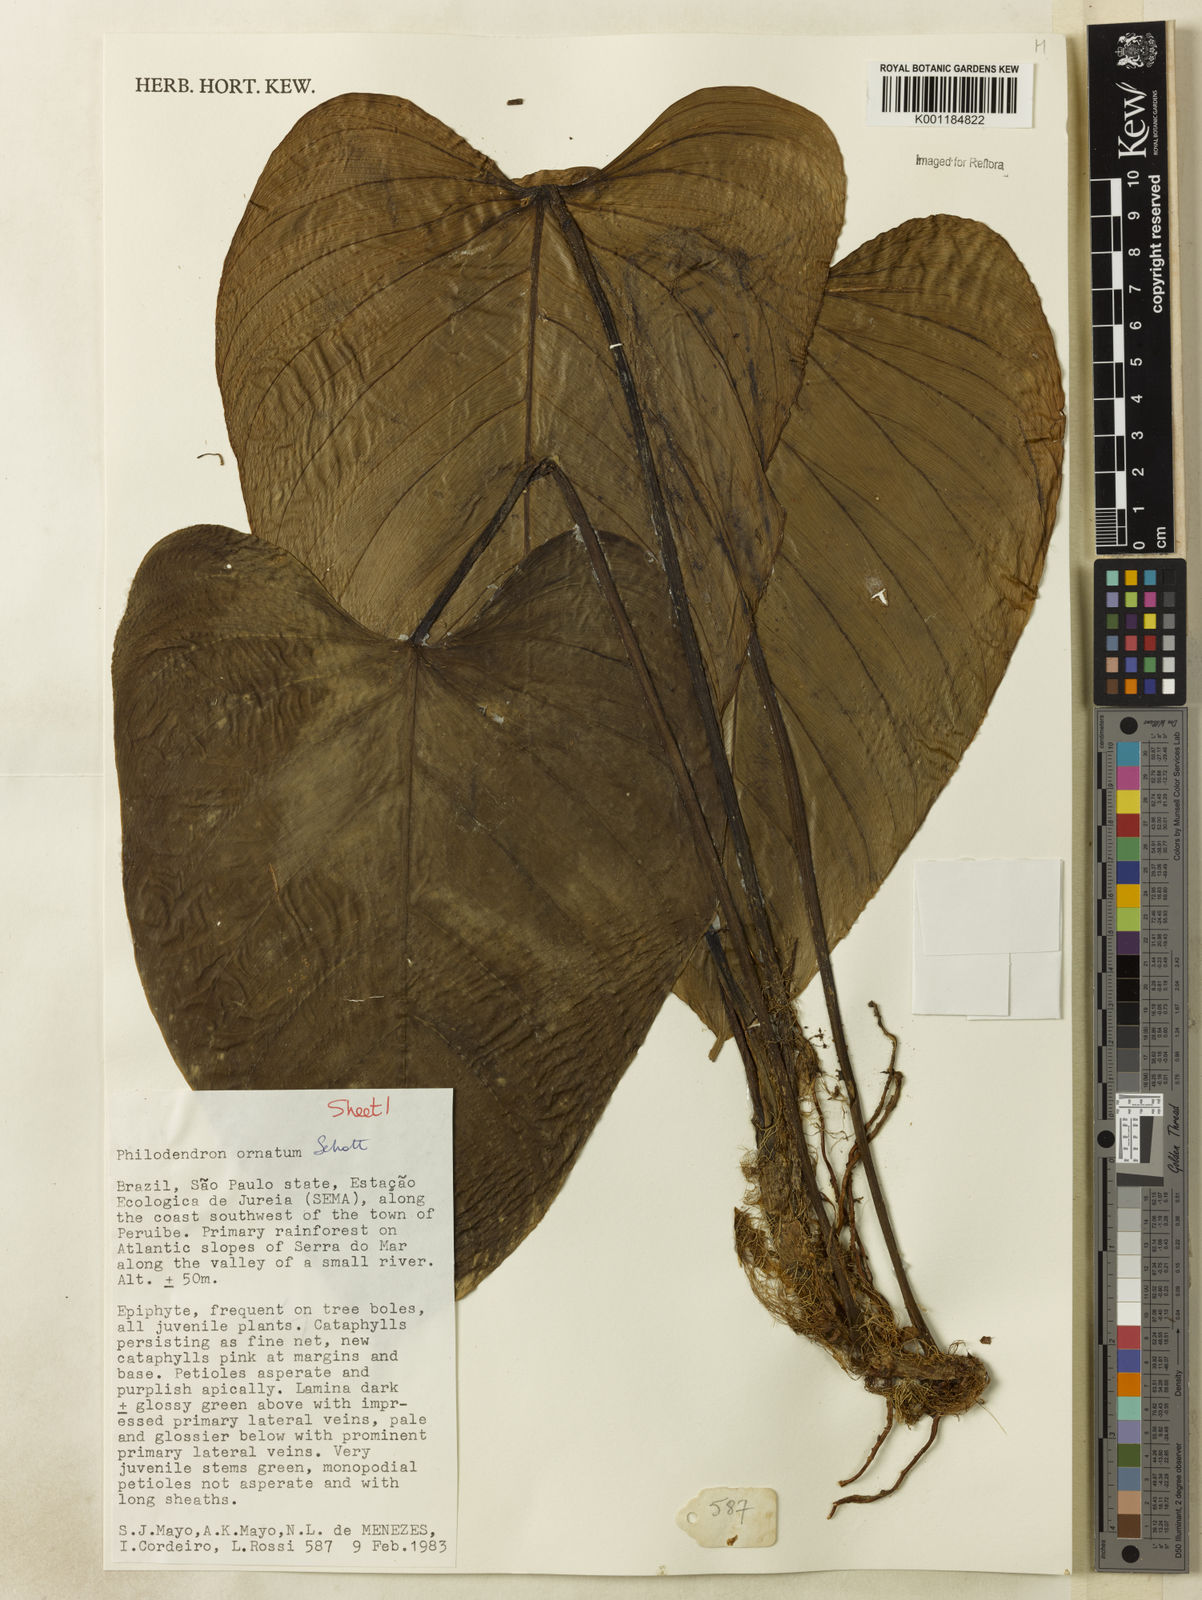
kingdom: Plantae
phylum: Tracheophyta
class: Liliopsida
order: Alismatales
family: Araceae
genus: Philodendron
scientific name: Philodendron ornatum
